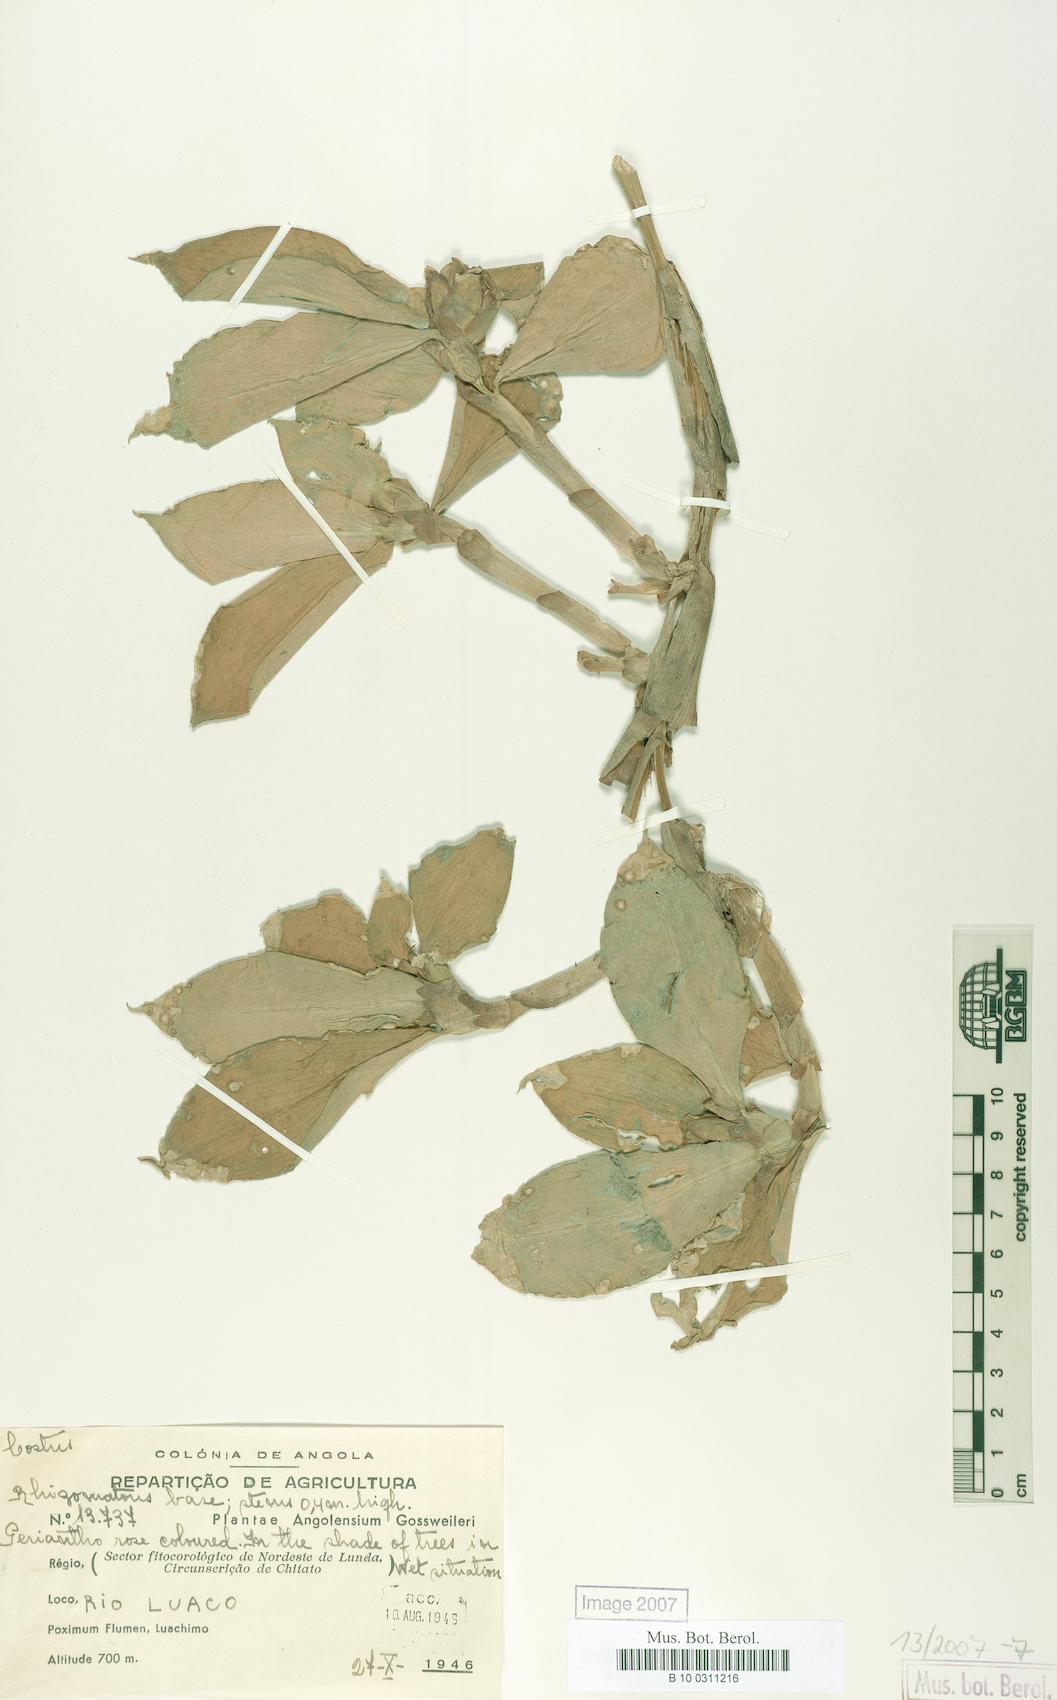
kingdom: Plantae
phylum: Tracheophyta
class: Liliopsida
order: Zingiberales
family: Costaceae
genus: Costus
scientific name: Costus phyllocephalus
